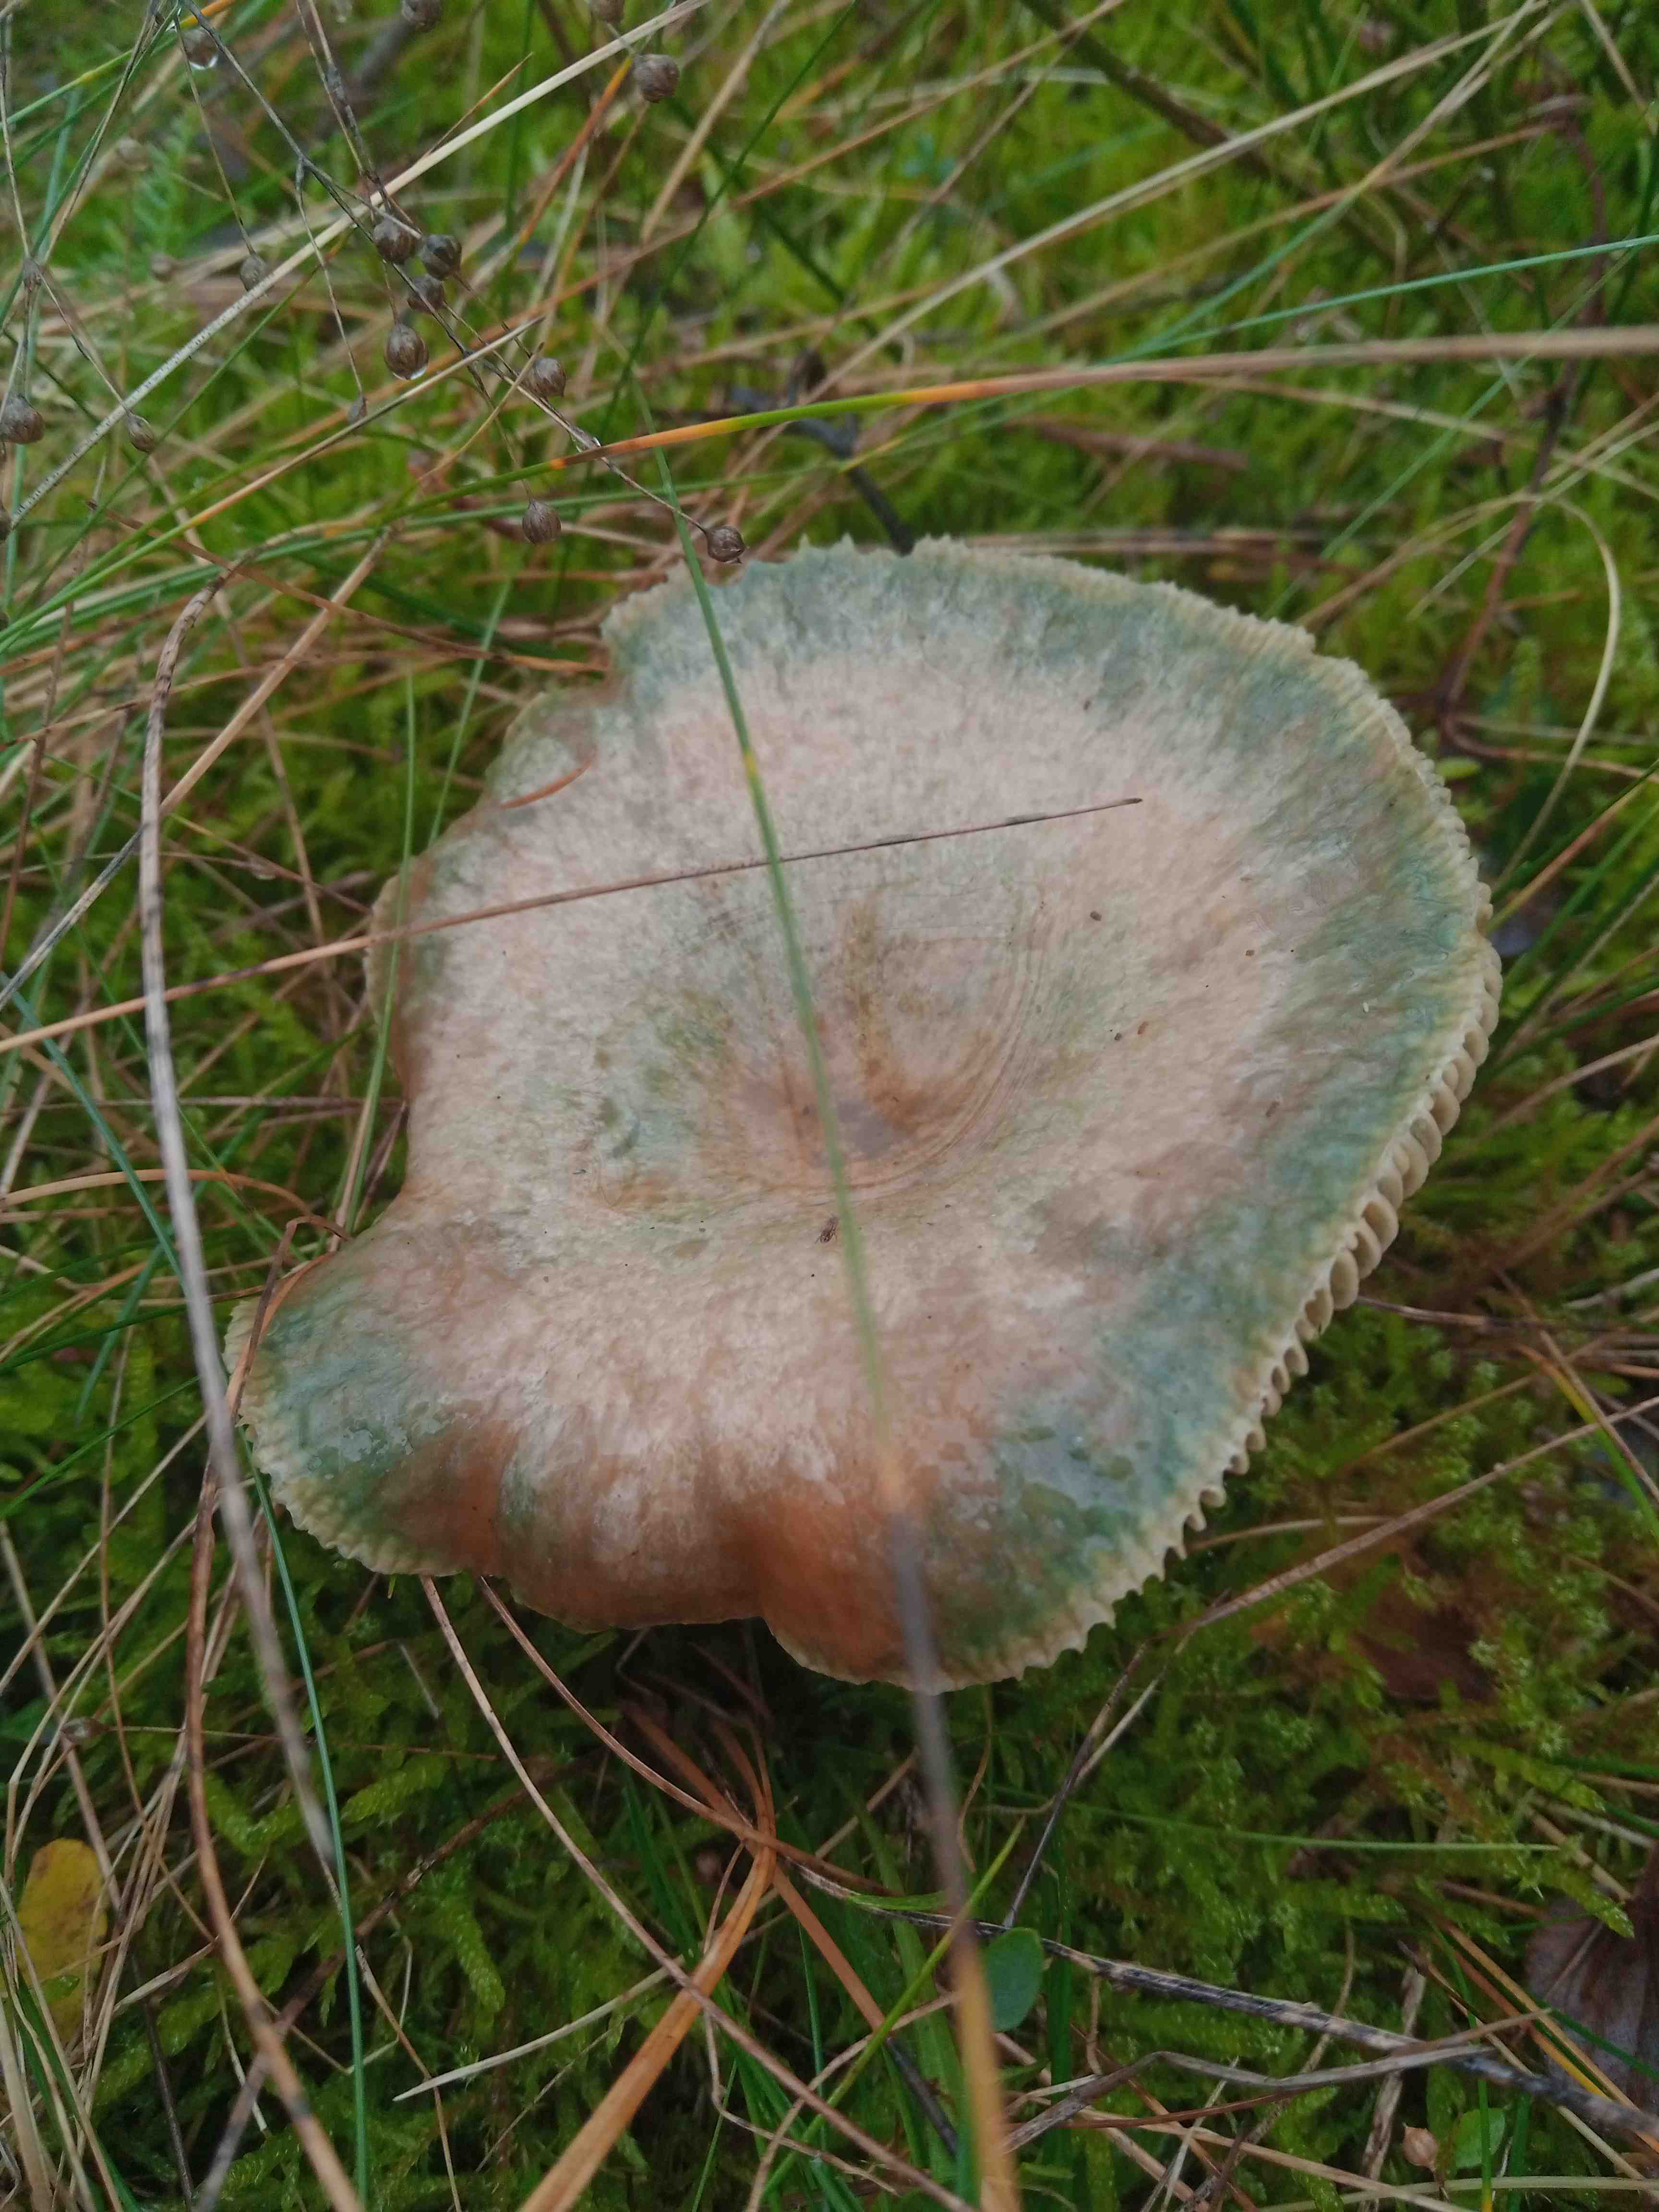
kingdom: Fungi
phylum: Basidiomycota
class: Agaricomycetes
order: Russulales
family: Russulaceae
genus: Lactarius
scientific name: Lactarius deterrimus
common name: gran-mælkehat
